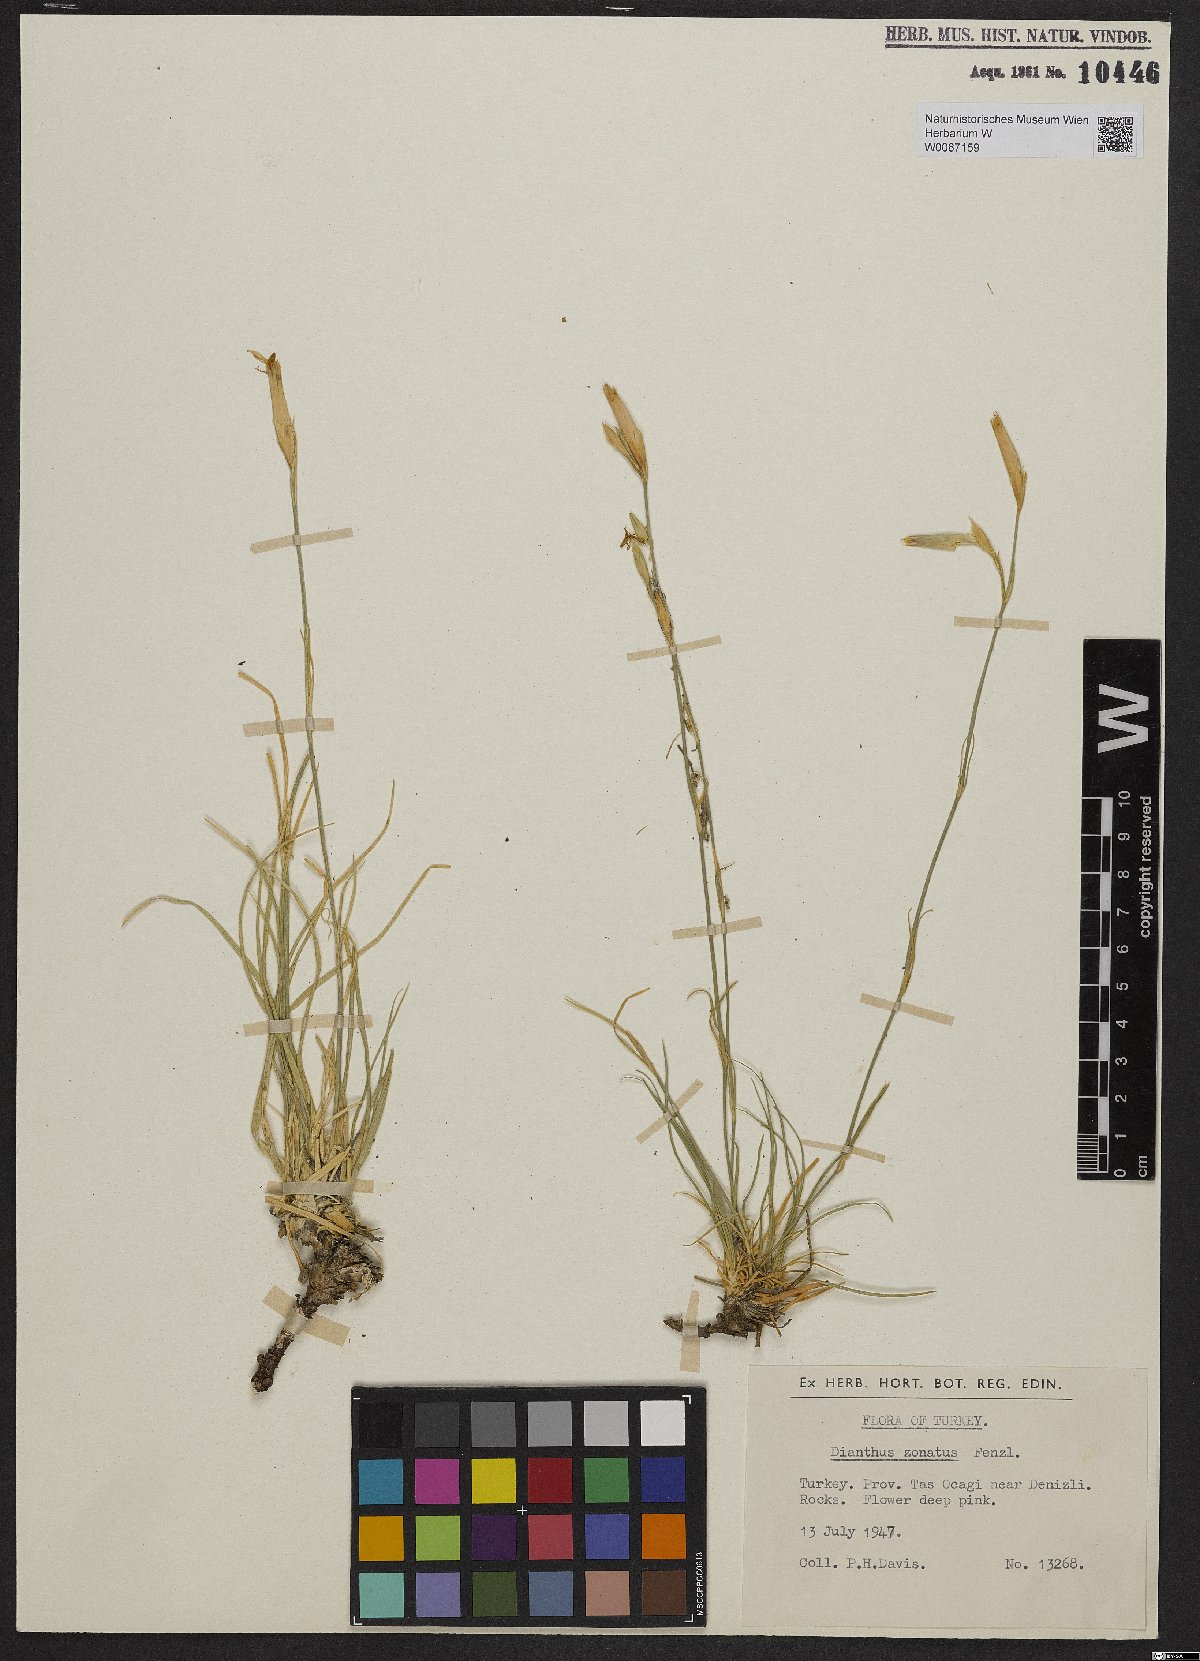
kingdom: Plantae
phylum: Tracheophyta
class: Magnoliopsida
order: Caryophyllales
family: Caryophyllaceae
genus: Dianthus
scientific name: Dianthus zonatus
